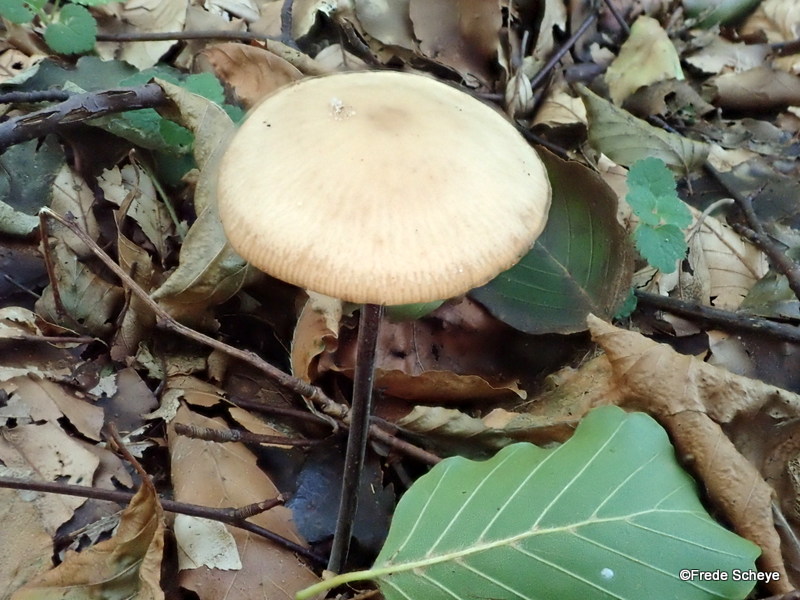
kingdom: Fungi
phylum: Basidiomycota
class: Agaricomycetes
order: Agaricales
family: Omphalotaceae
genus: Mycetinis
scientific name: Mycetinis alliaceus
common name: stor løghat
